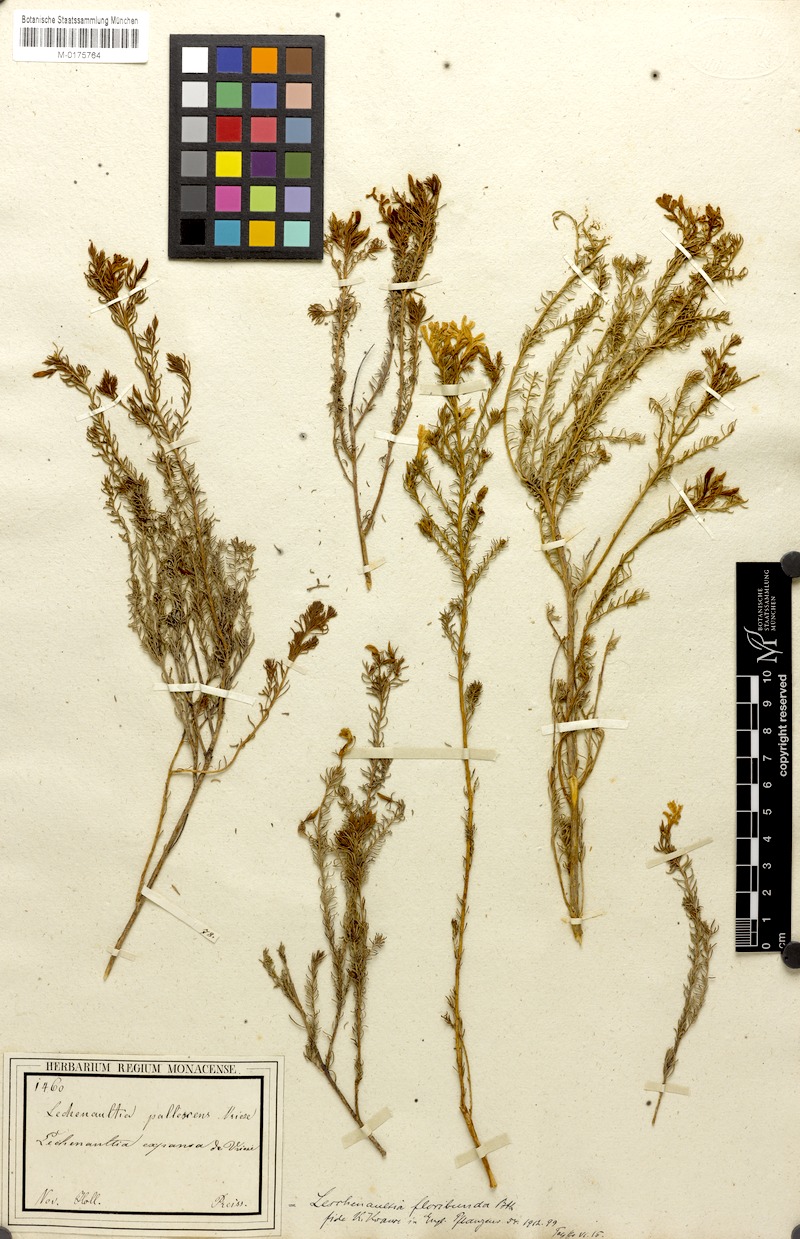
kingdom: Plantae
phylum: Tracheophyta
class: Magnoliopsida
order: Asterales
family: Goodeniaceae
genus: Lechenaultia
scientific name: Lechenaultia floribunda
